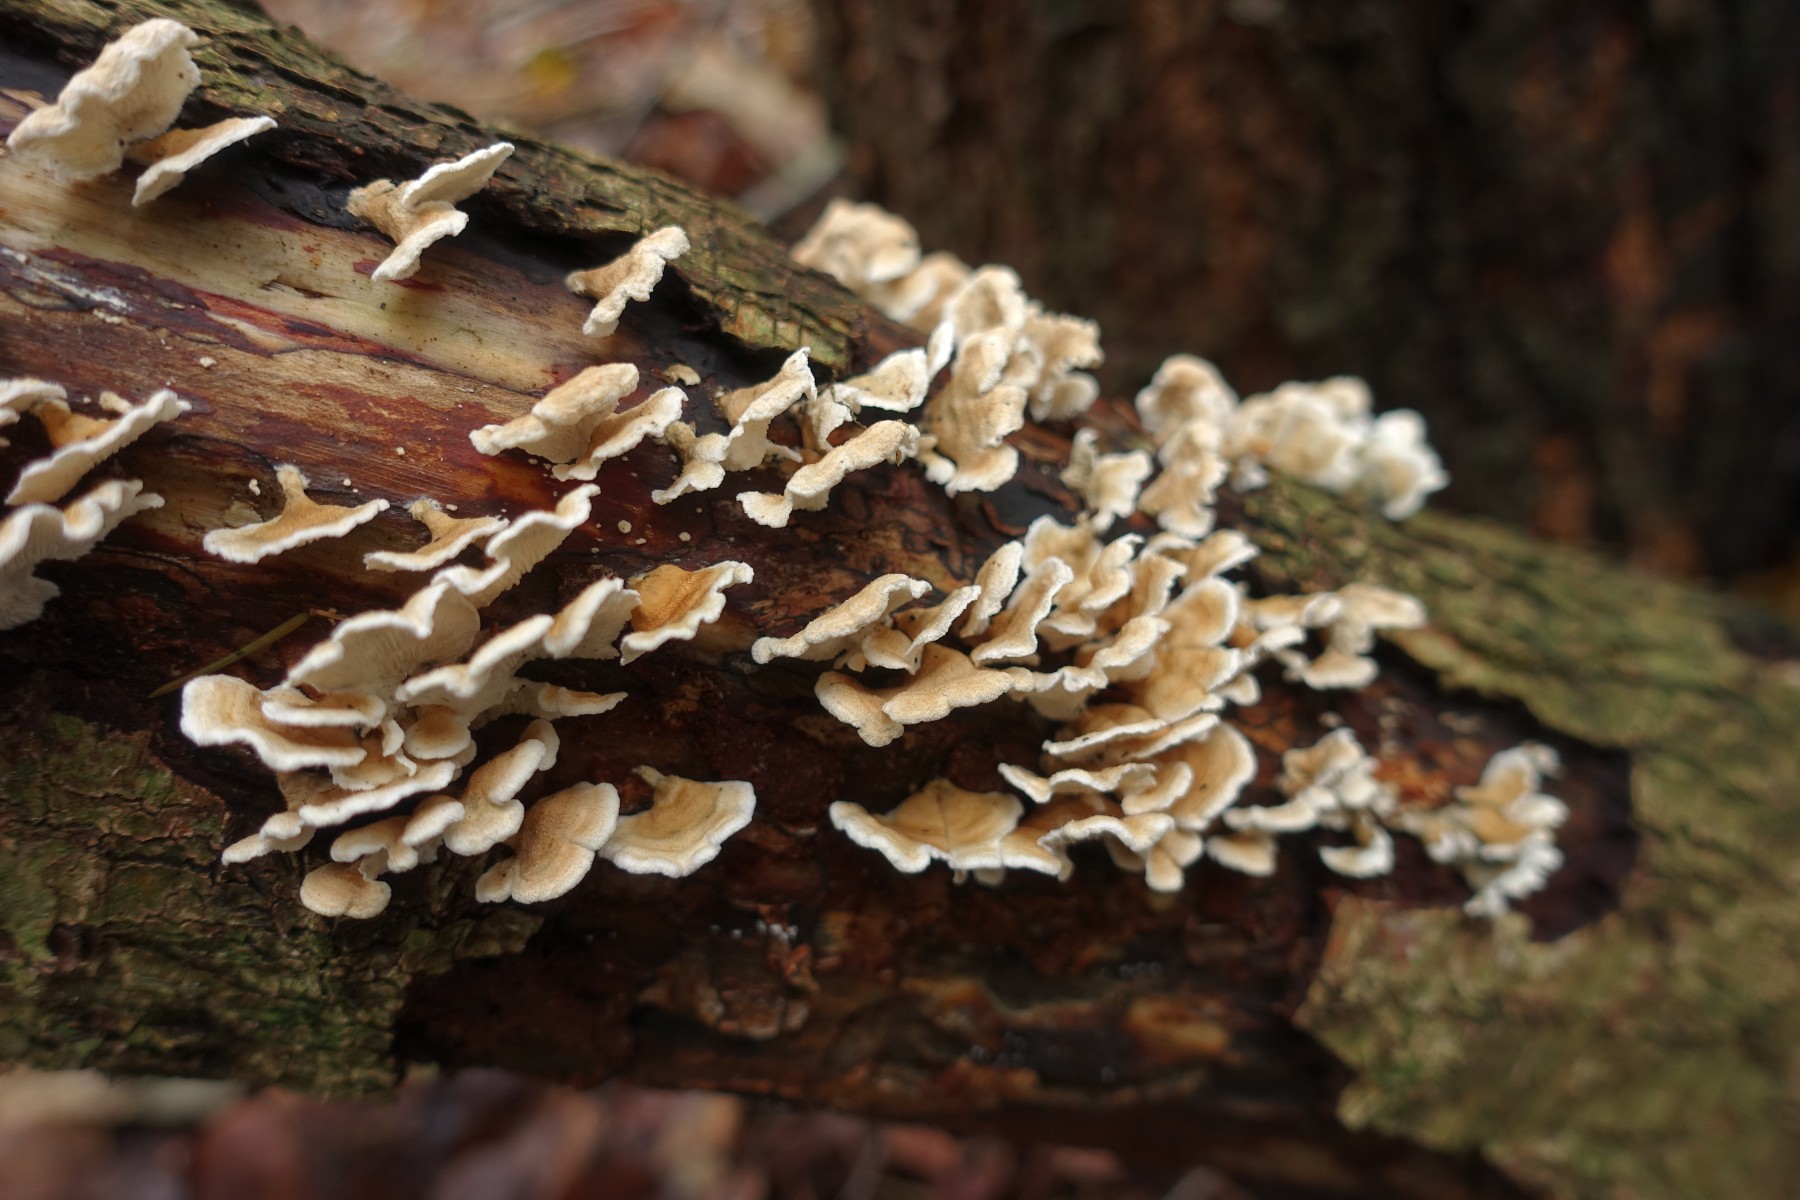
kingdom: Fungi
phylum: Basidiomycota
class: Agaricomycetes
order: Amylocorticiales
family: Amylocorticiaceae
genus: Plicaturopsis
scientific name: Plicaturopsis crispa
